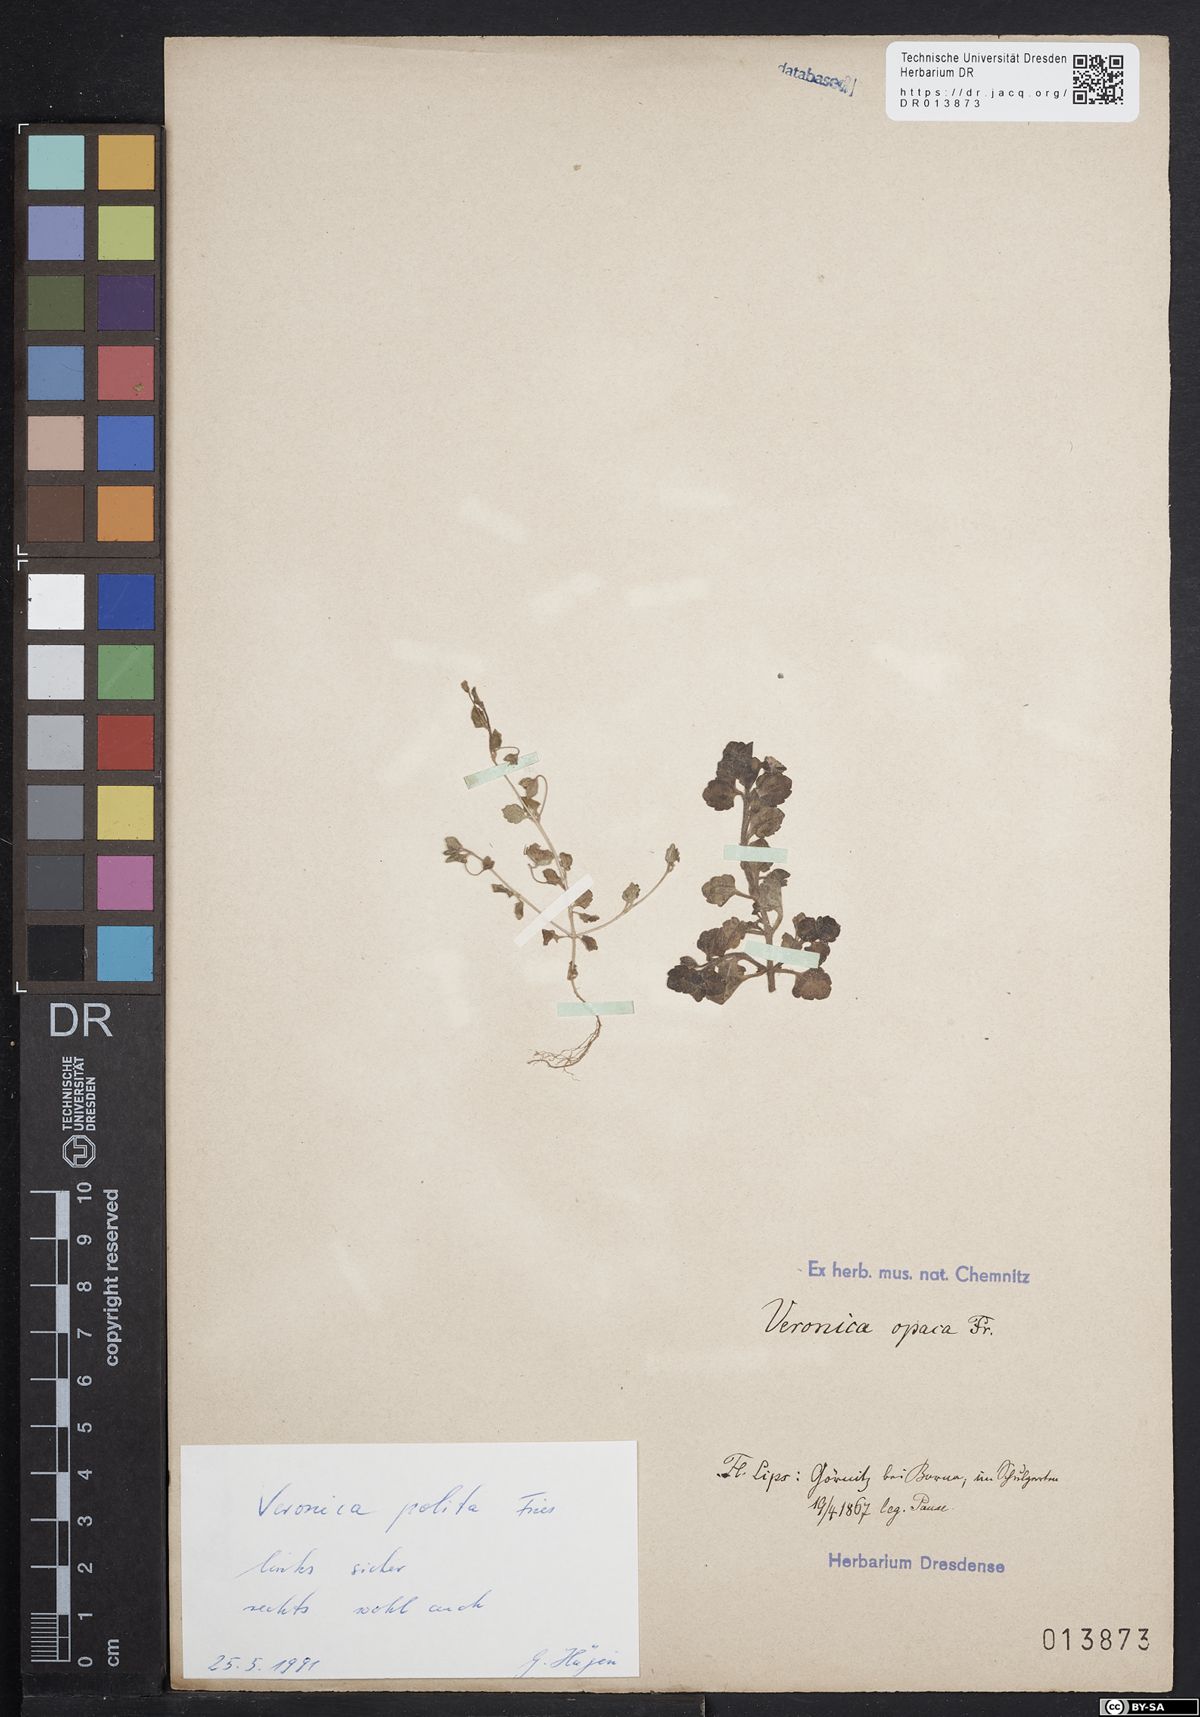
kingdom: Plantae
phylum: Tracheophyta
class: Magnoliopsida
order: Lamiales
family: Plantaginaceae
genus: Veronica
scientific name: Veronica polita
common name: Grey field-speedwell
